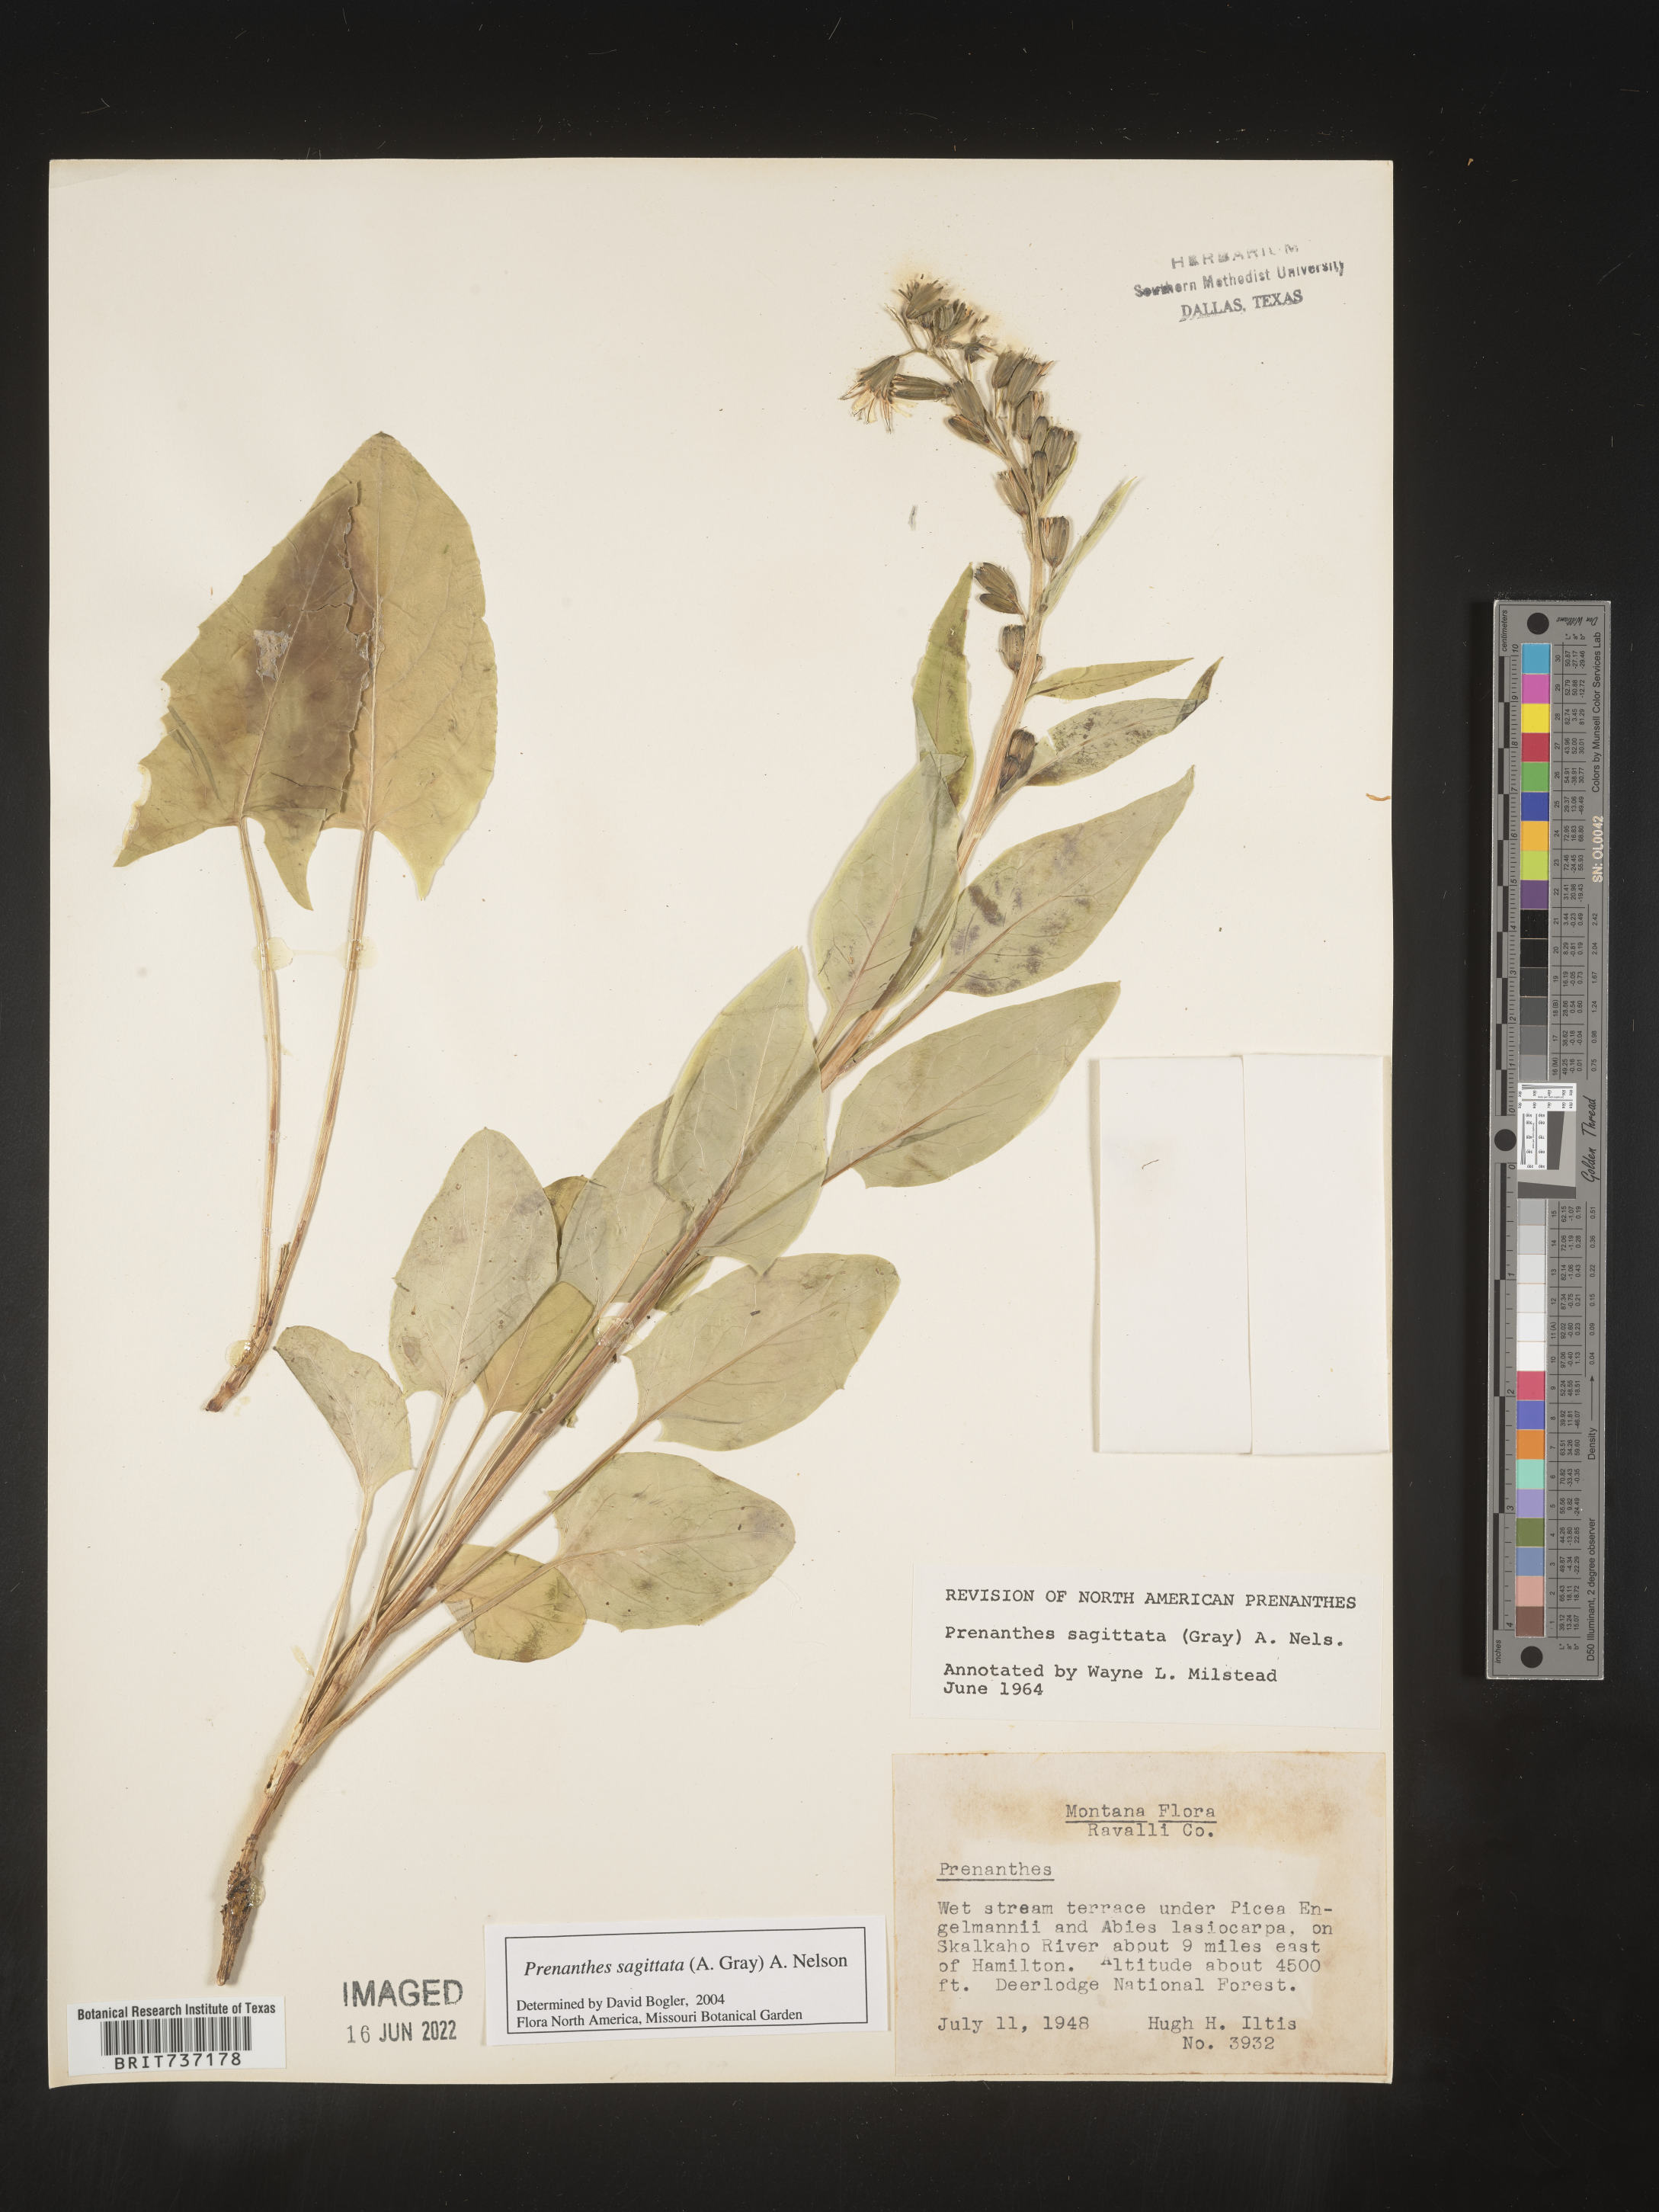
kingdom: Plantae
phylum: Tracheophyta
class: Magnoliopsida
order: Asterales
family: Asteraceae
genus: Nabalus
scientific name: Nabalus sagittatus
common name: Arrowleaf snakeroot
